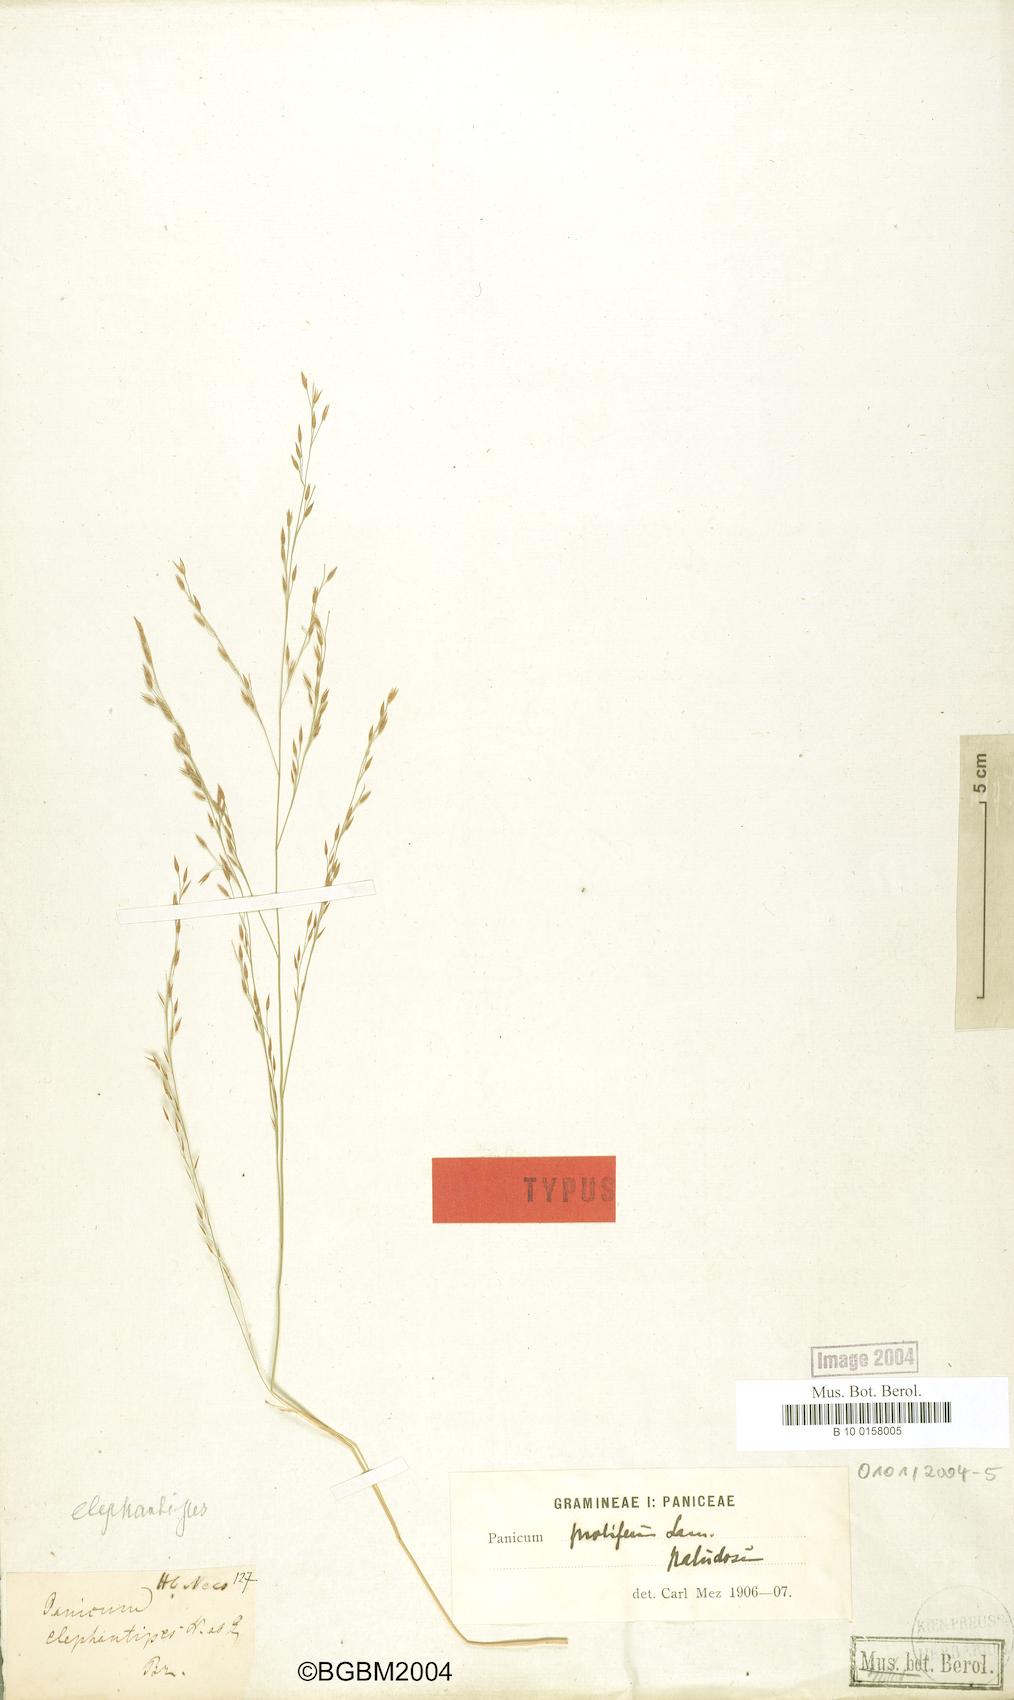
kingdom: Plantae
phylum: Tracheophyta
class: Liliopsida
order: Poales
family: Poaceae
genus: Louisiella
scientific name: Louisiella elephantipes
